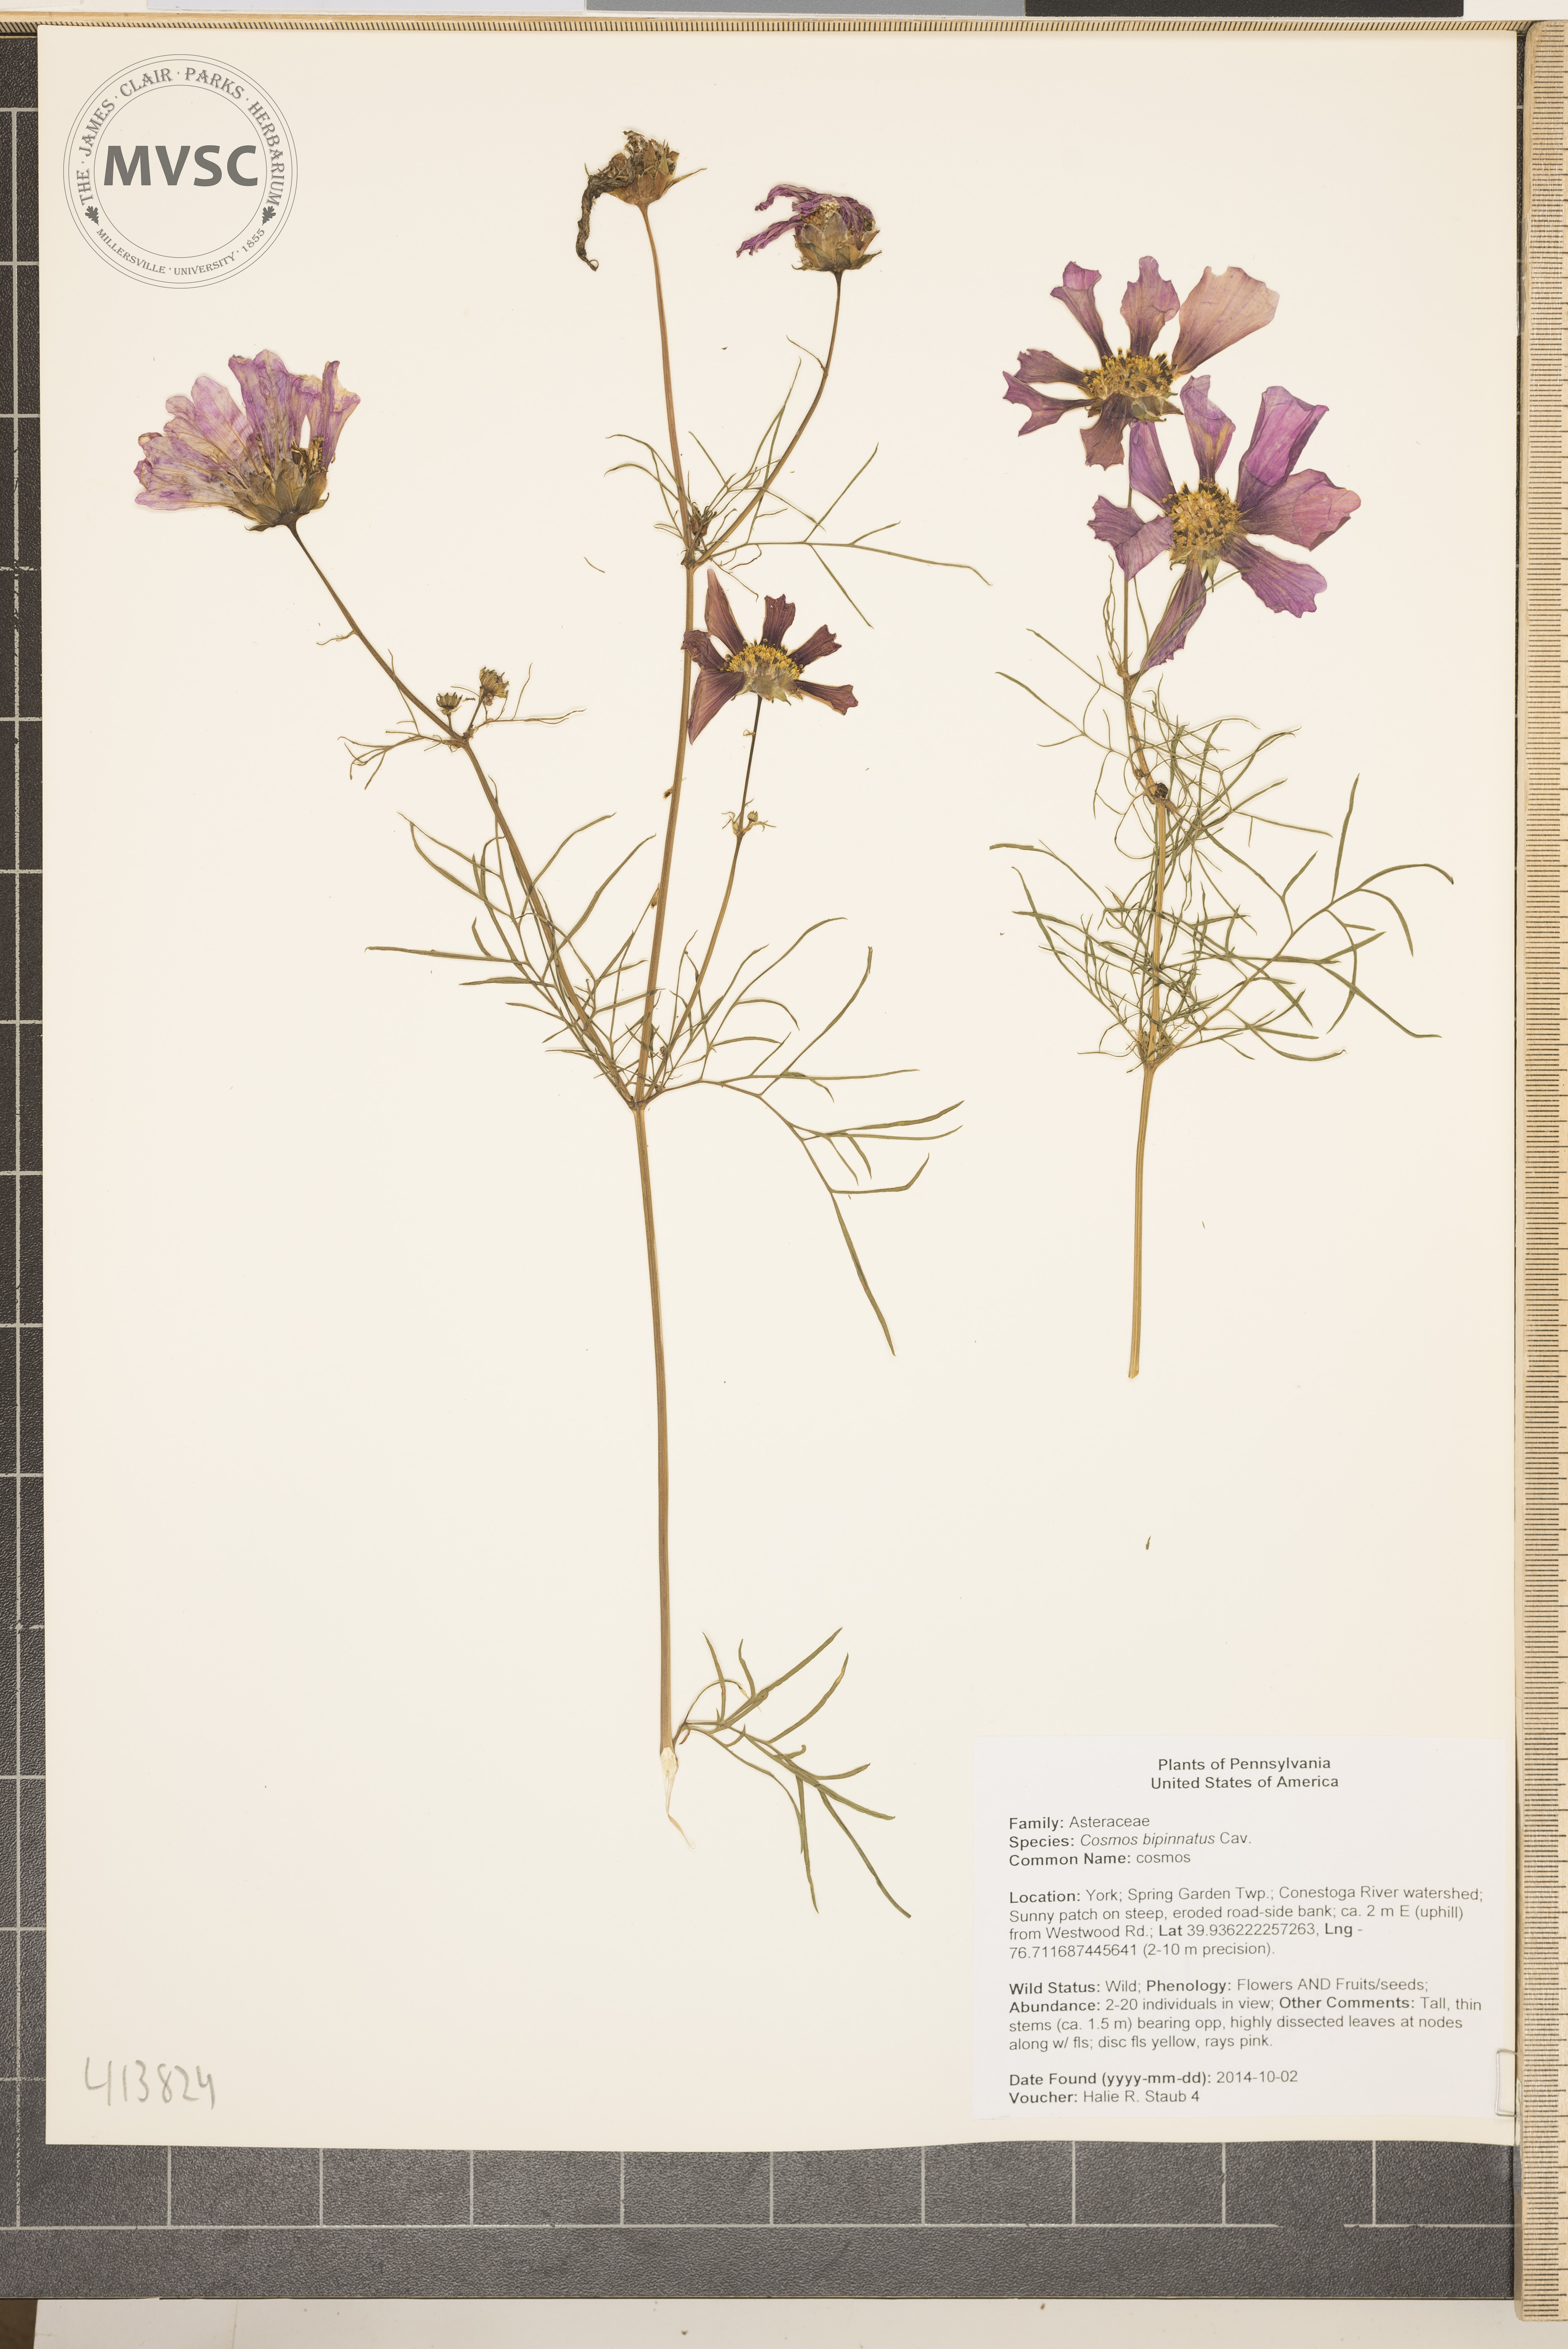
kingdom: Plantae
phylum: Tracheophyta
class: Magnoliopsida
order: Asterales
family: Asteraceae
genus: Cosmos
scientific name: Cosmos bipinnatus
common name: Cosmos
